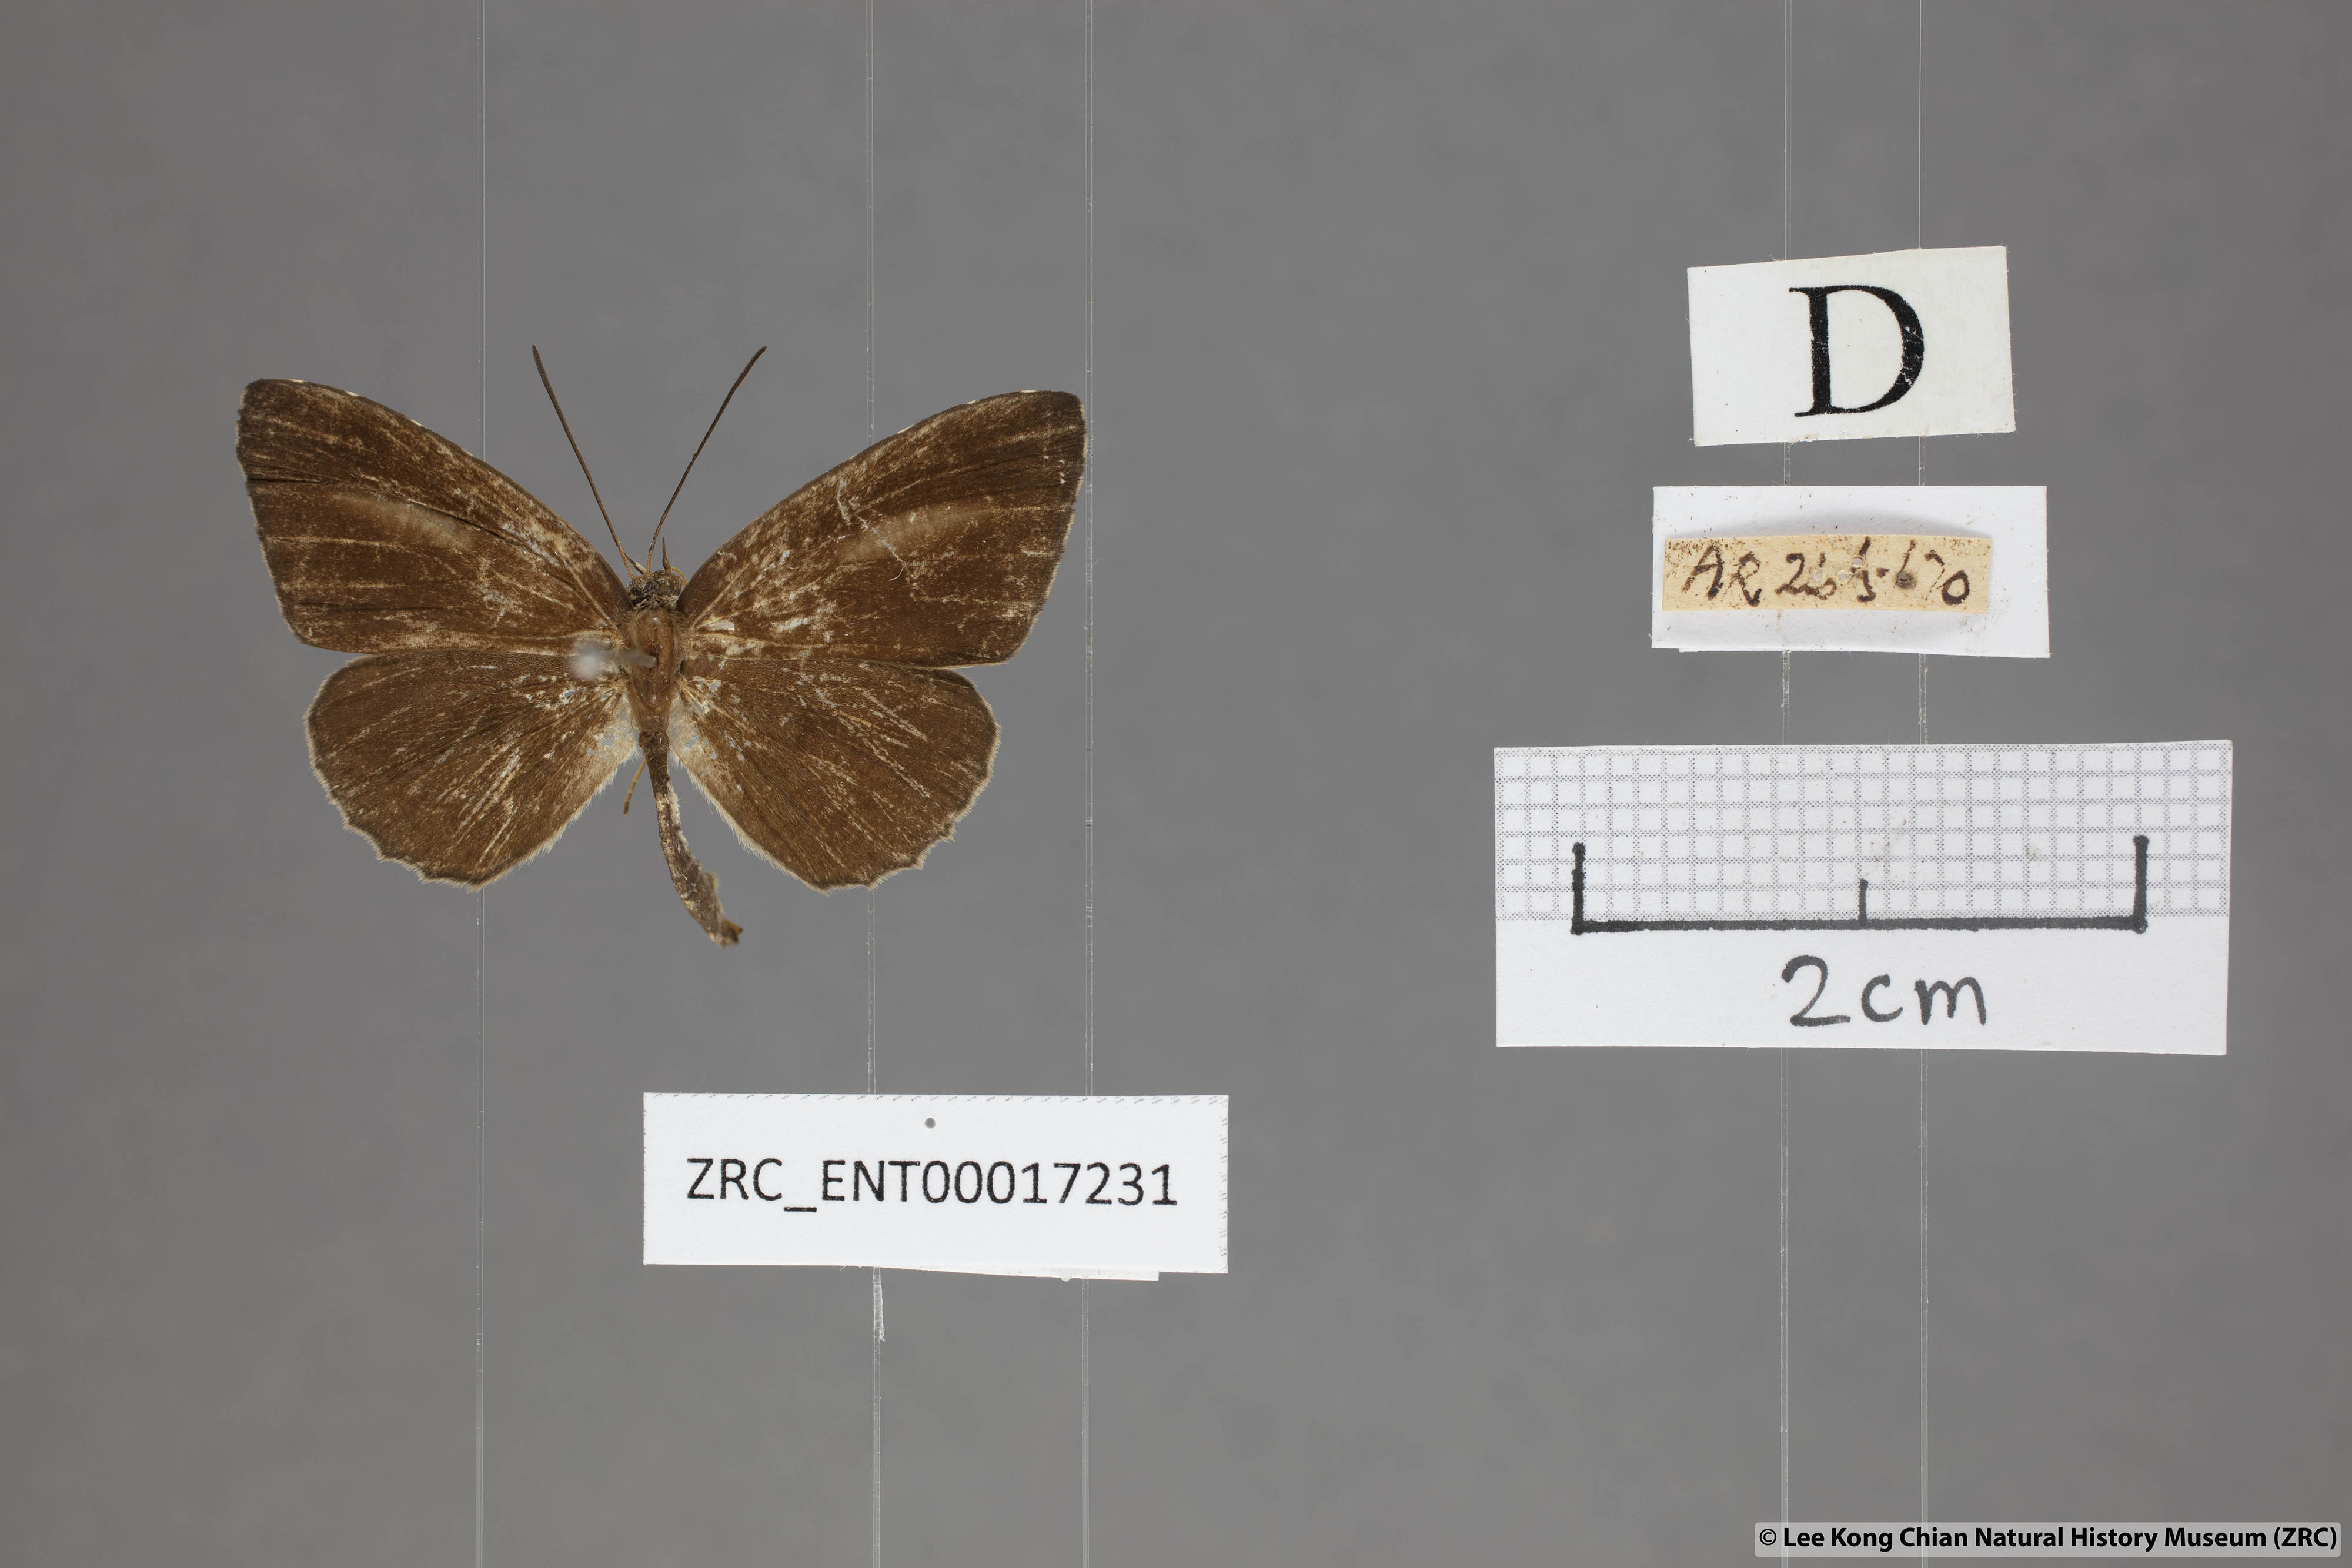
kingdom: Animalia
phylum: Arthropoda
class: Insecta
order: Lepidoptera
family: Lycaenidae
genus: Allotinus
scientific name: Allotinus fabius
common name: Angled darkie
